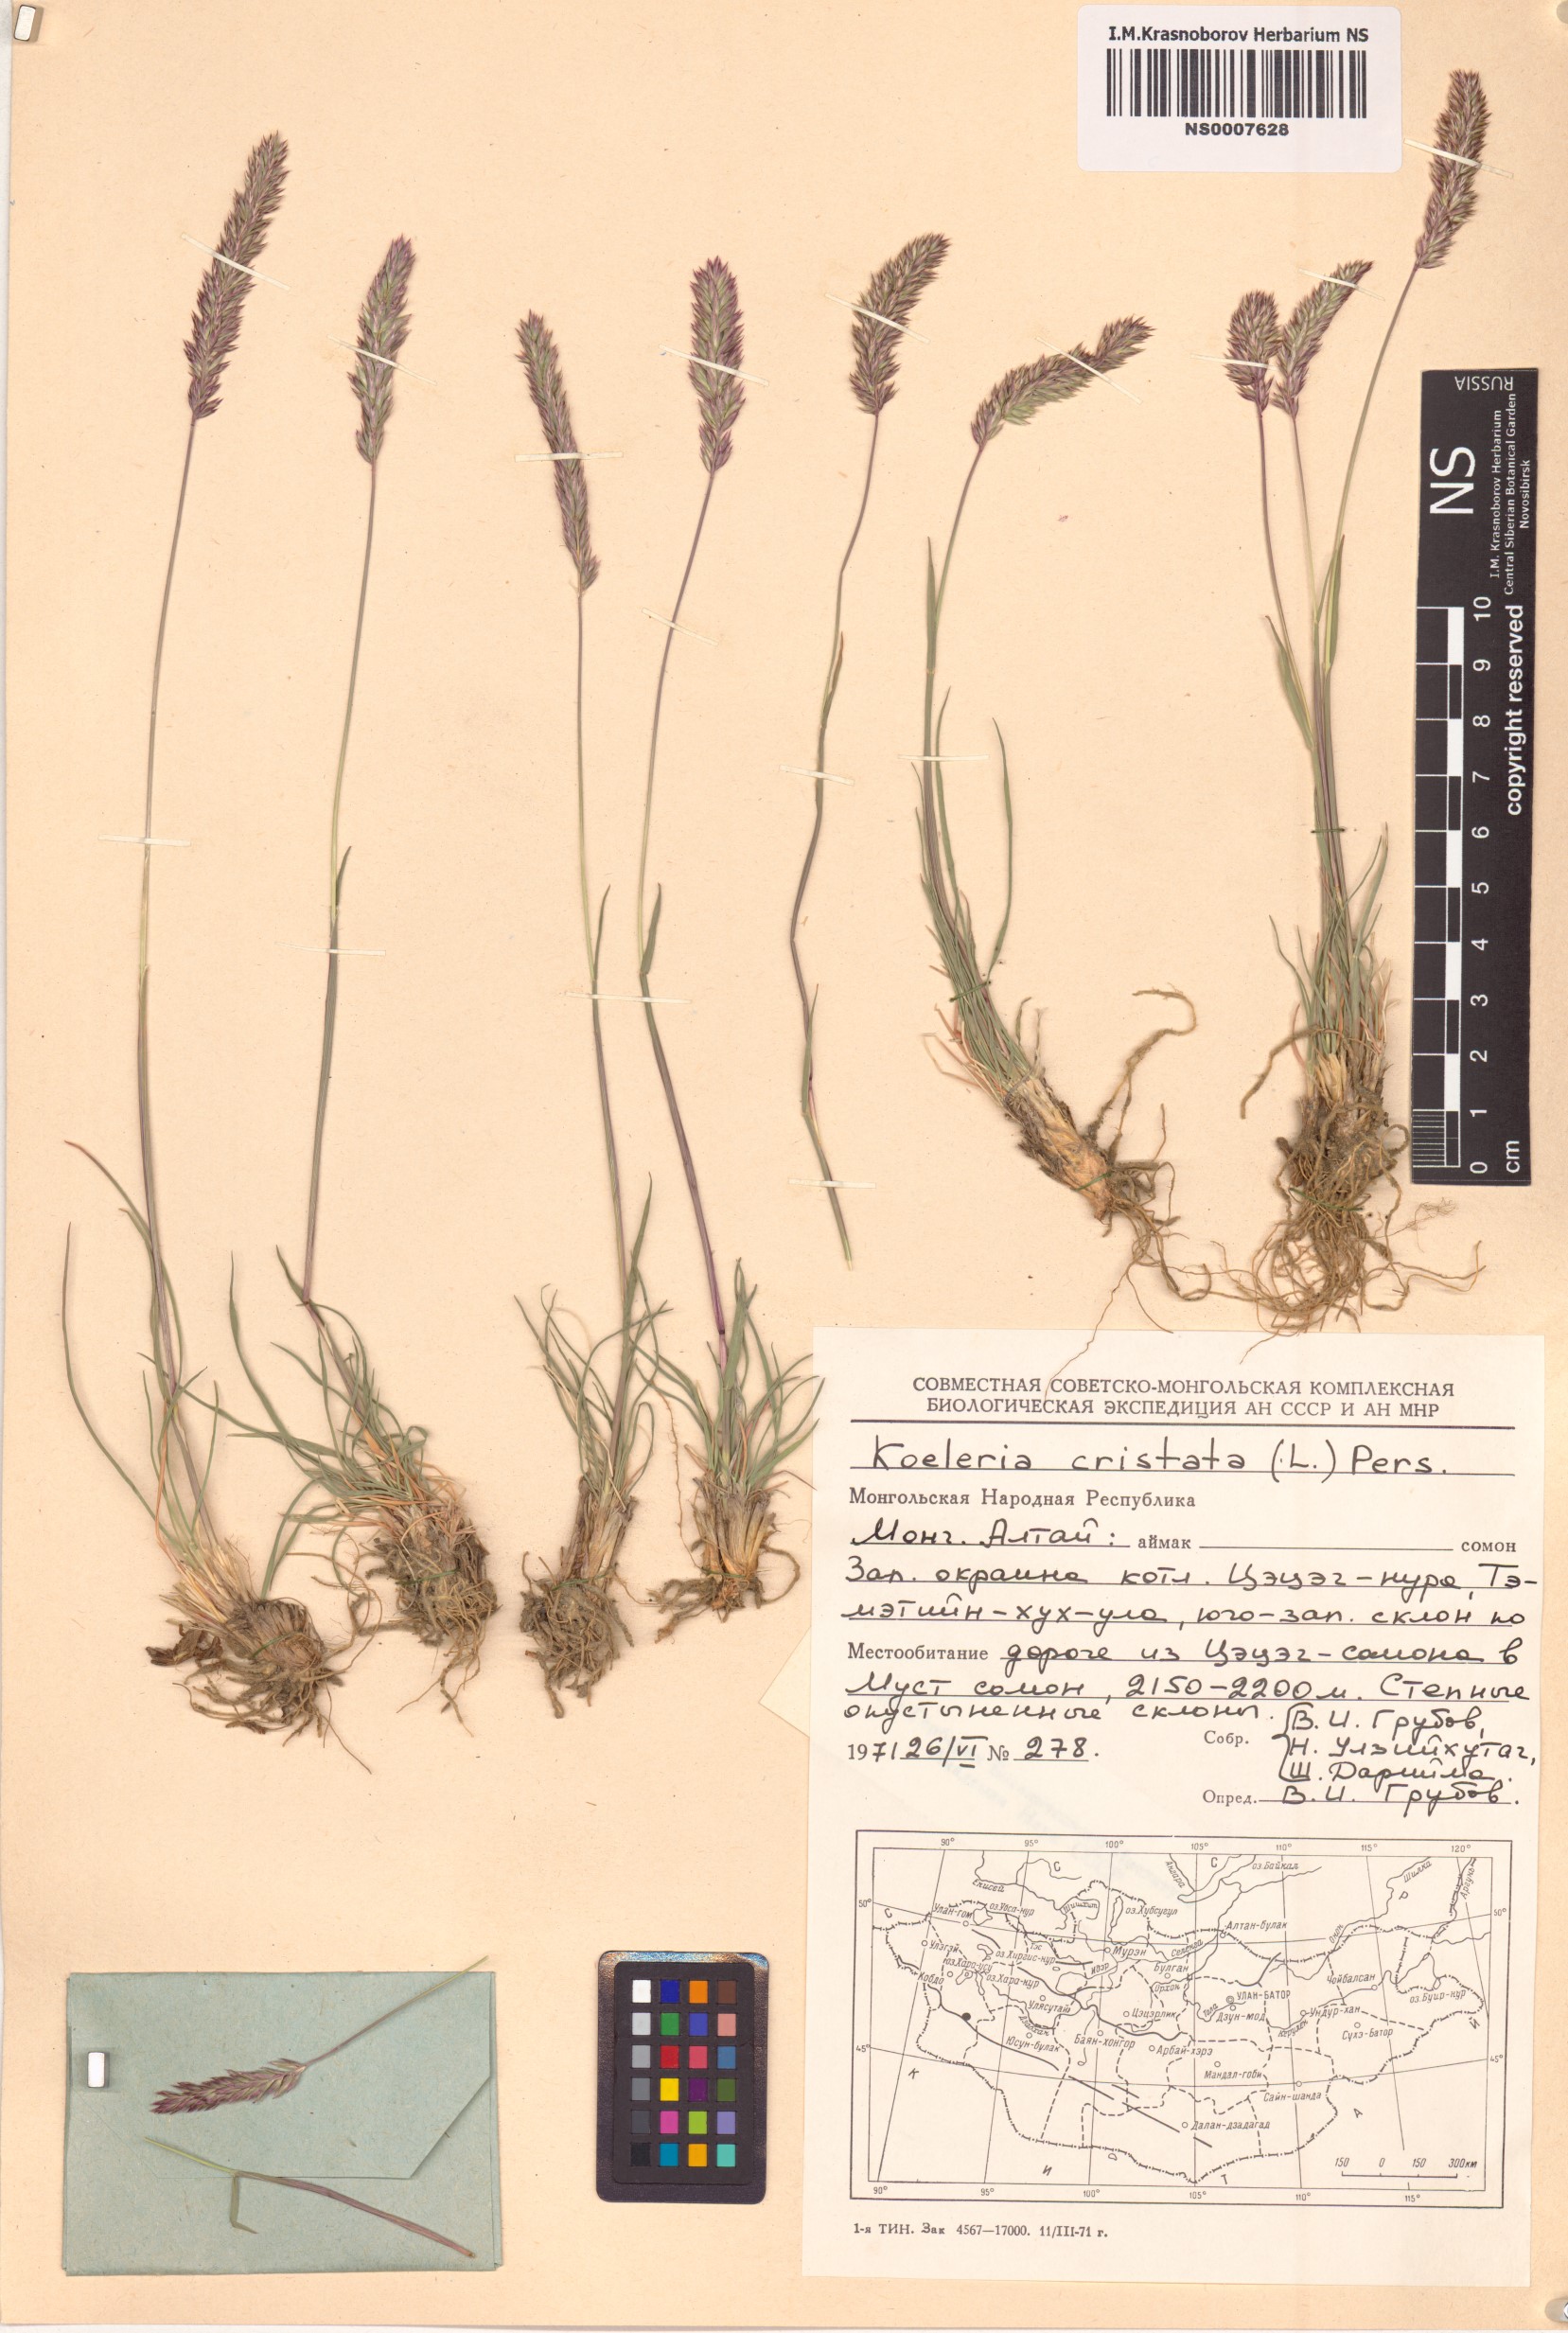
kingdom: Plantae
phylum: Tracheophyta
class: Liliopsida
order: Poales
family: Poaceae
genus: Rostraria
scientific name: Rostraria cristata
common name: Mediterranean hair-grass
